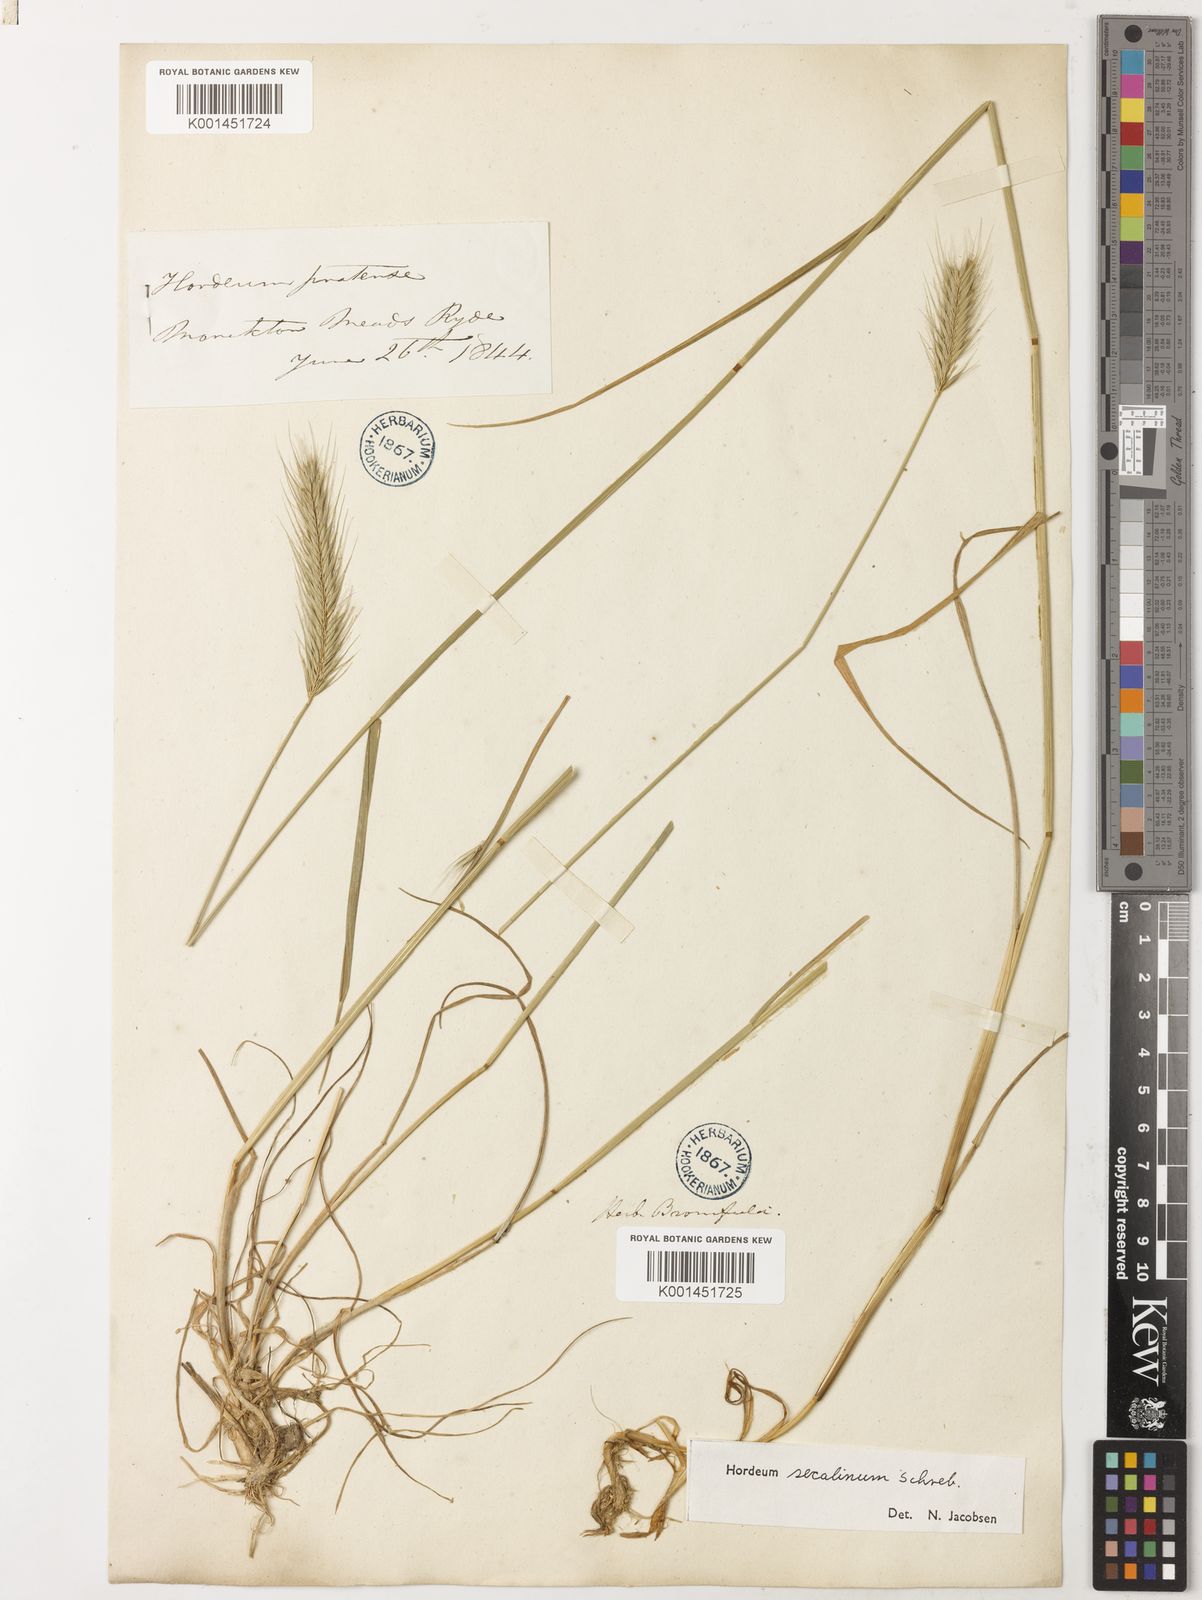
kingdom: Plantae
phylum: Tracheophyta
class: Liliopsida
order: Poales
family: Poaceae
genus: Hordeum
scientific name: Hordeum secalinum
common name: Meadow barley
